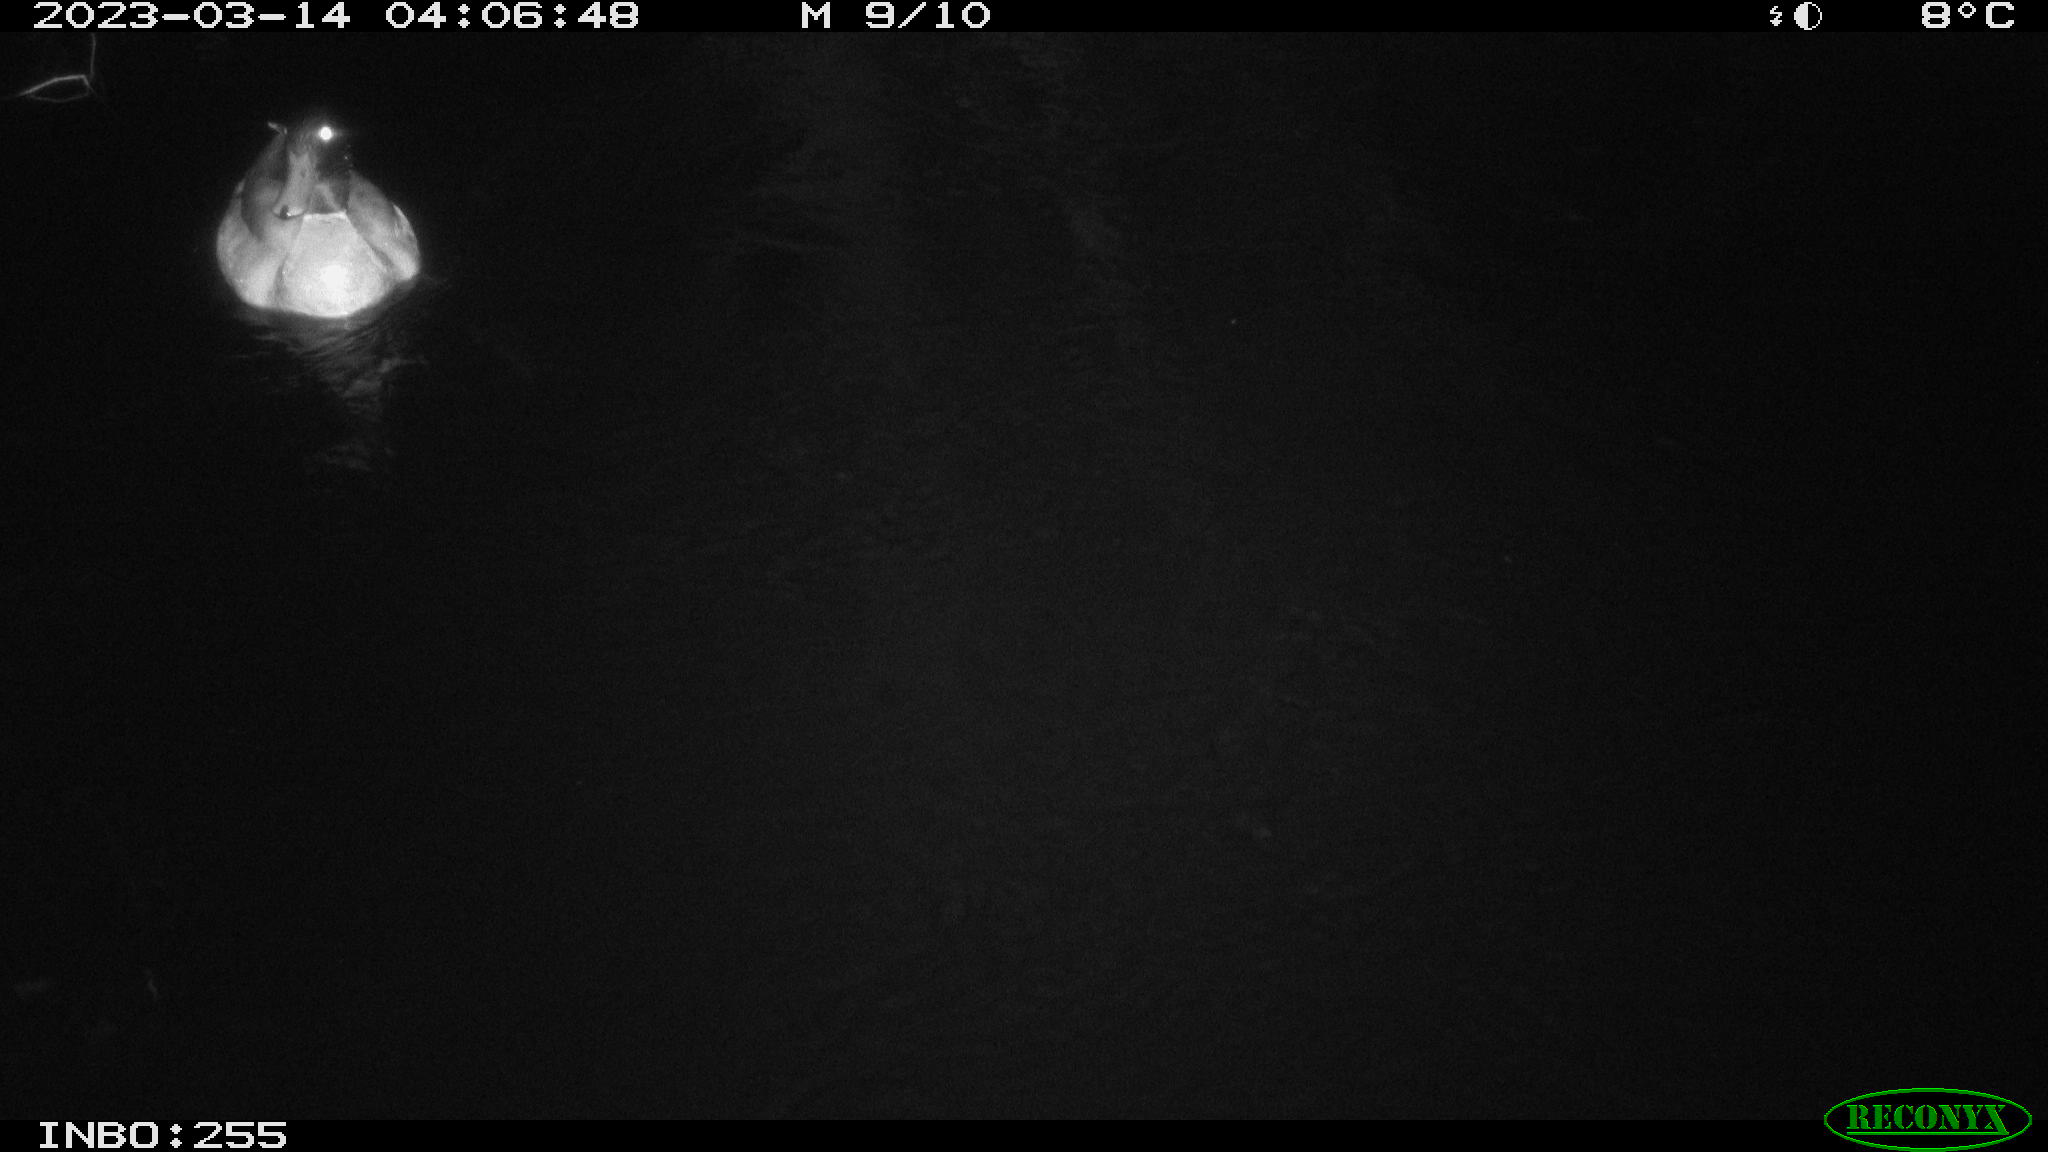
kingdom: Animalia
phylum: Chordata
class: Aves
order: Anseriformes
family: Anatidae
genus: Anas
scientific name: Anas
